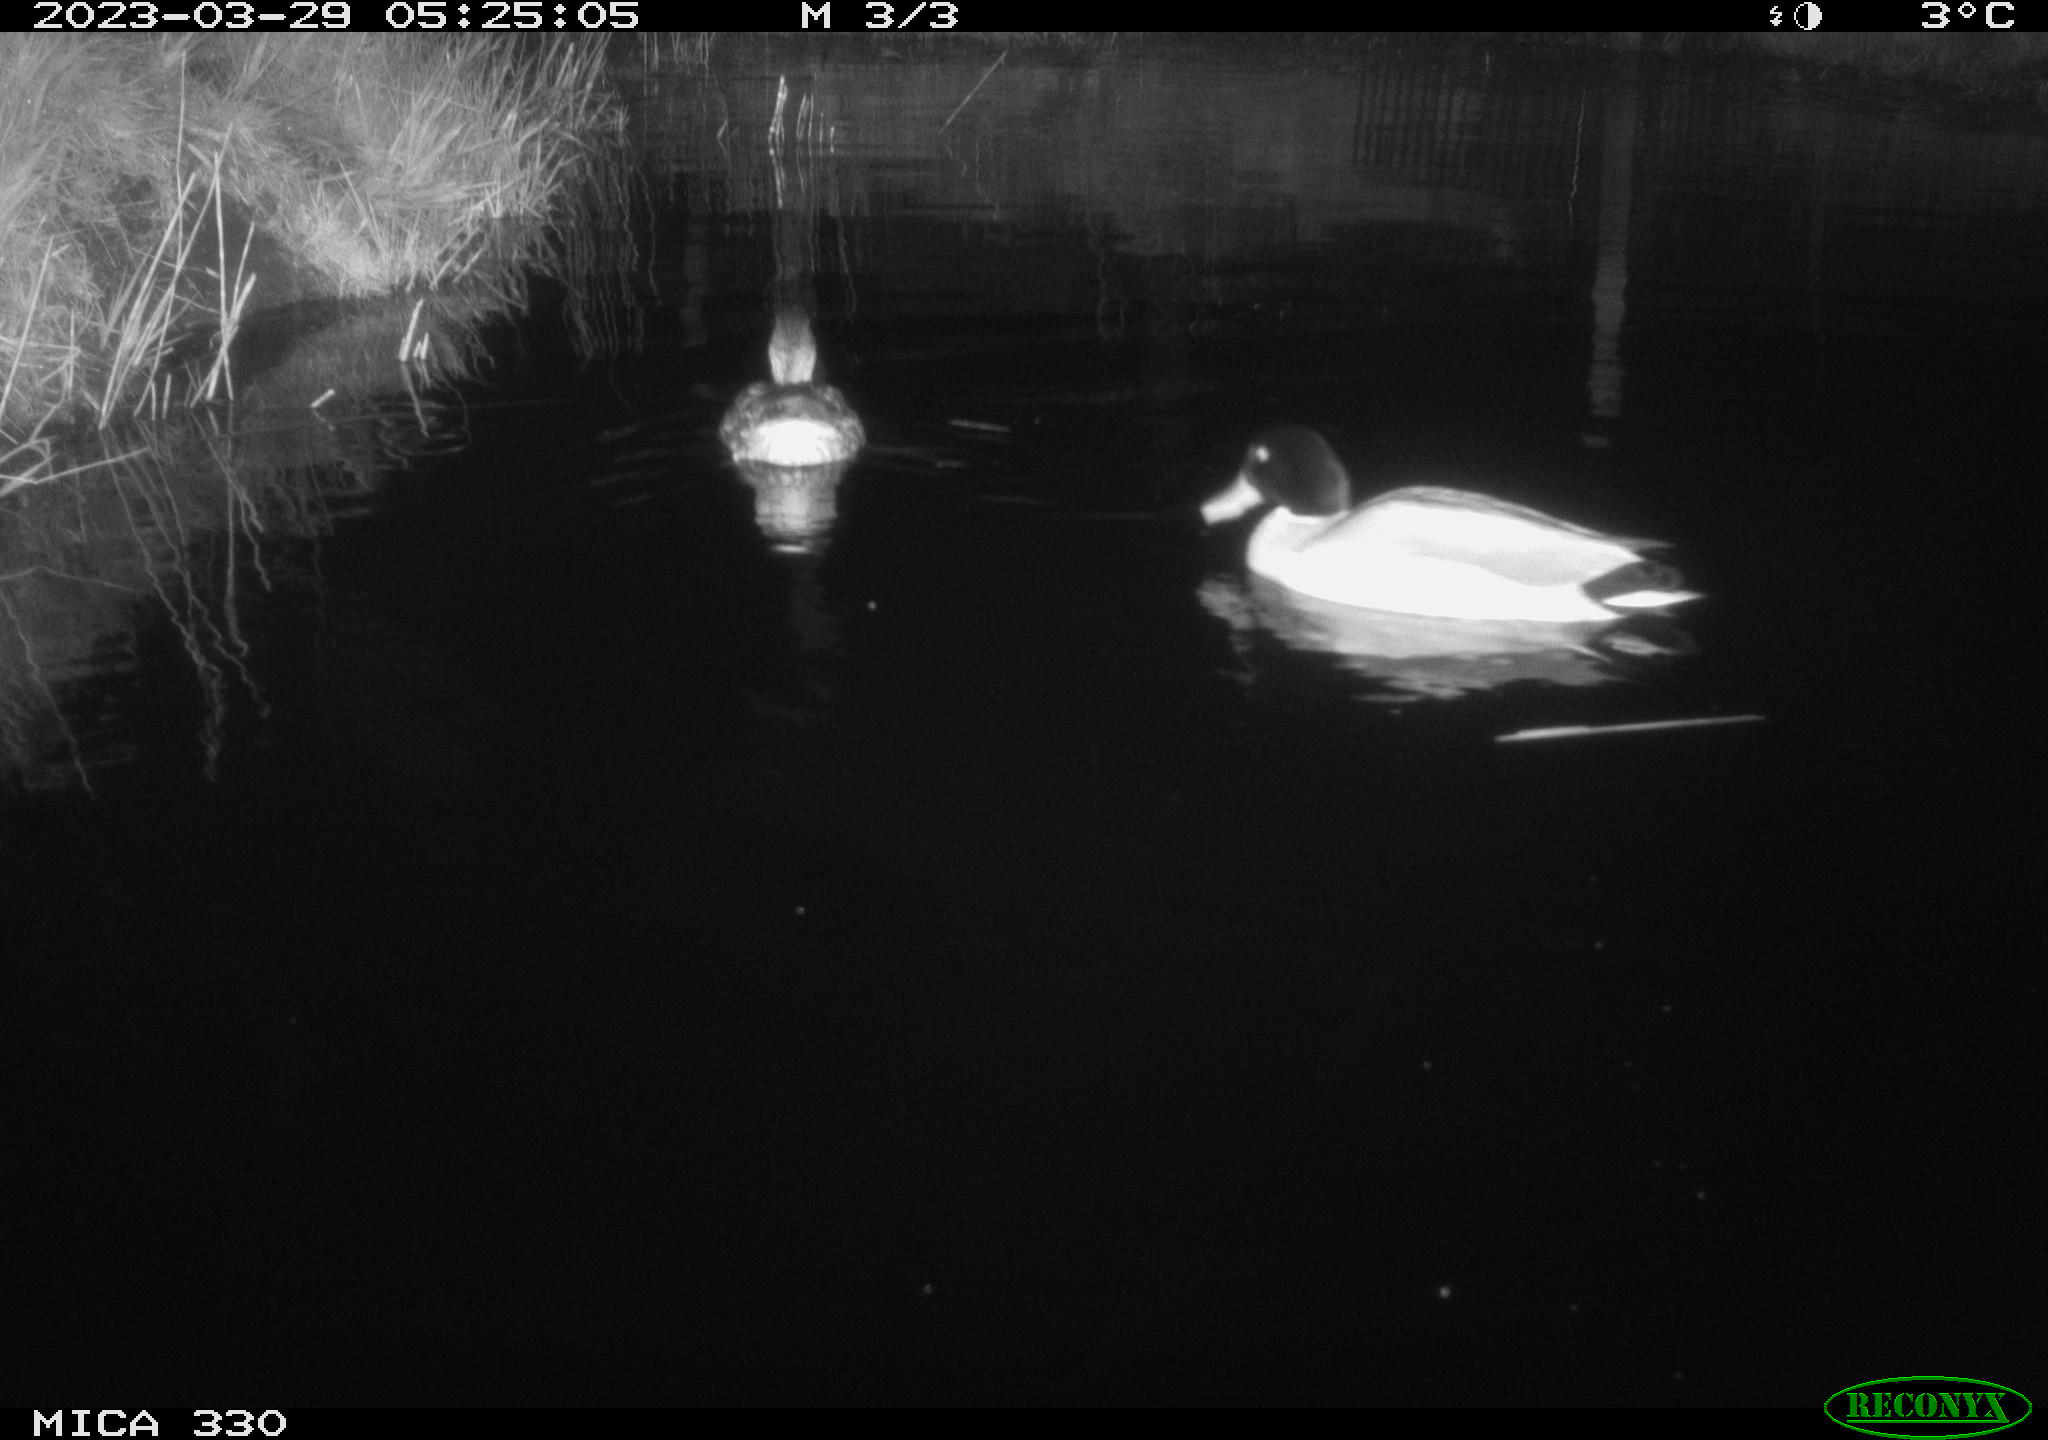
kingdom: Animalia
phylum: Chordata
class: Aves
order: Anseriformes
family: Anatidae
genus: Anas
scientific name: Anas platyrhynchos
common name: Mallard
